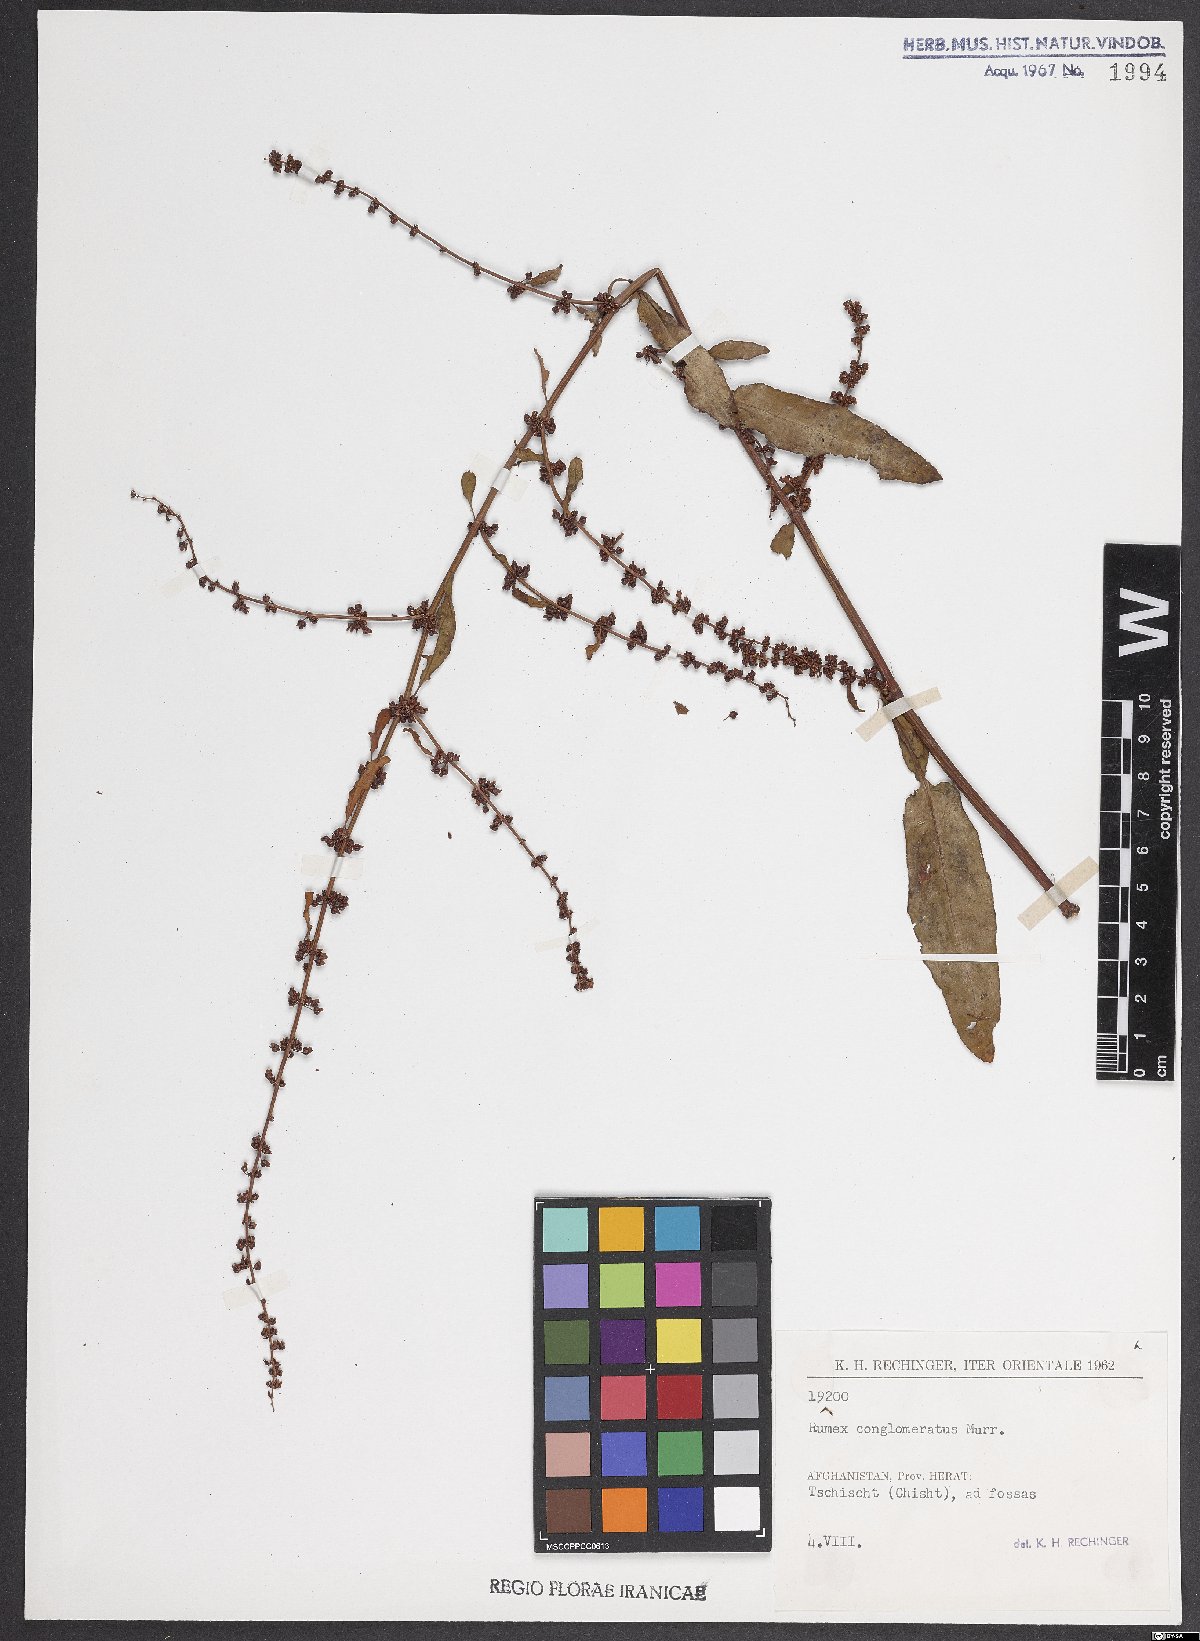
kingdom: Plantae
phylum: Tracheophyta
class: Magnoliopsida
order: Caryophyllales
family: Polygonaceae
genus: Rumex
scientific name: Rumex conglomeratus
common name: Clustered dock
